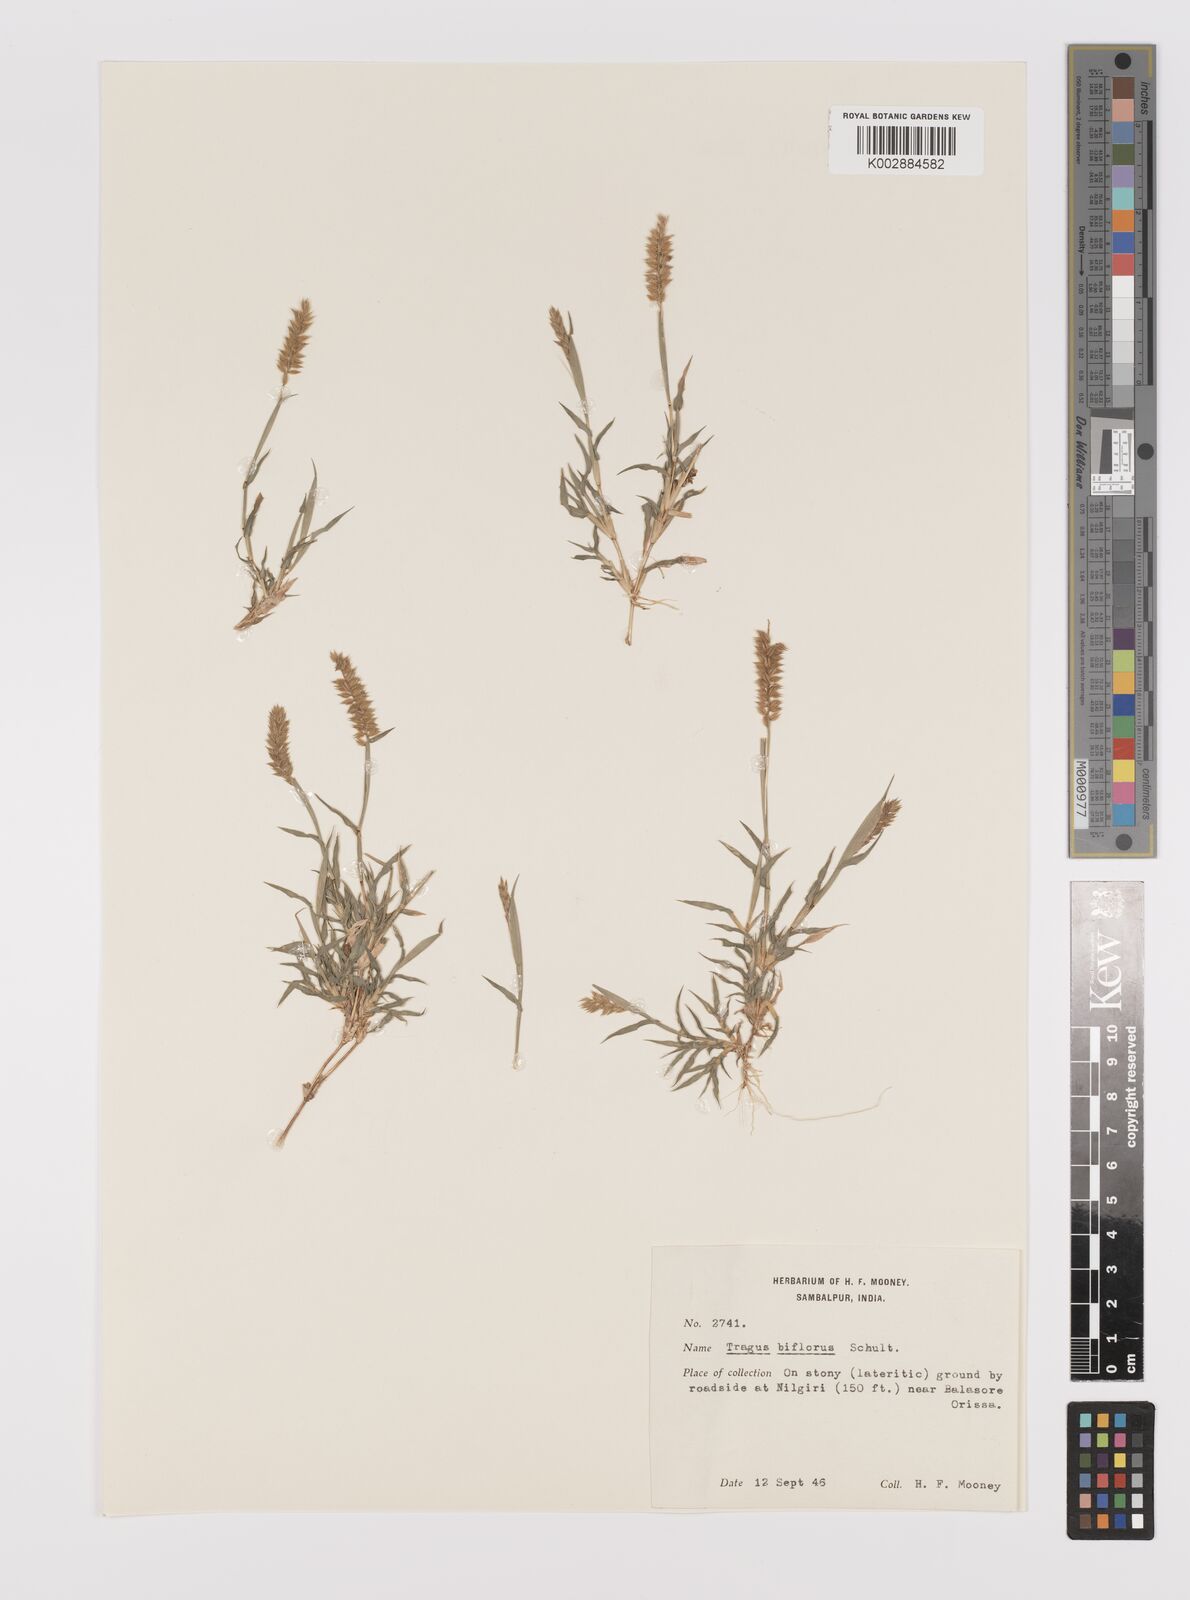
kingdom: Plantae
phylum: Tracheophyta
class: Liliopsida
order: Poales
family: Poaceae
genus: Tragus
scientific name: Tragus mongolorum
